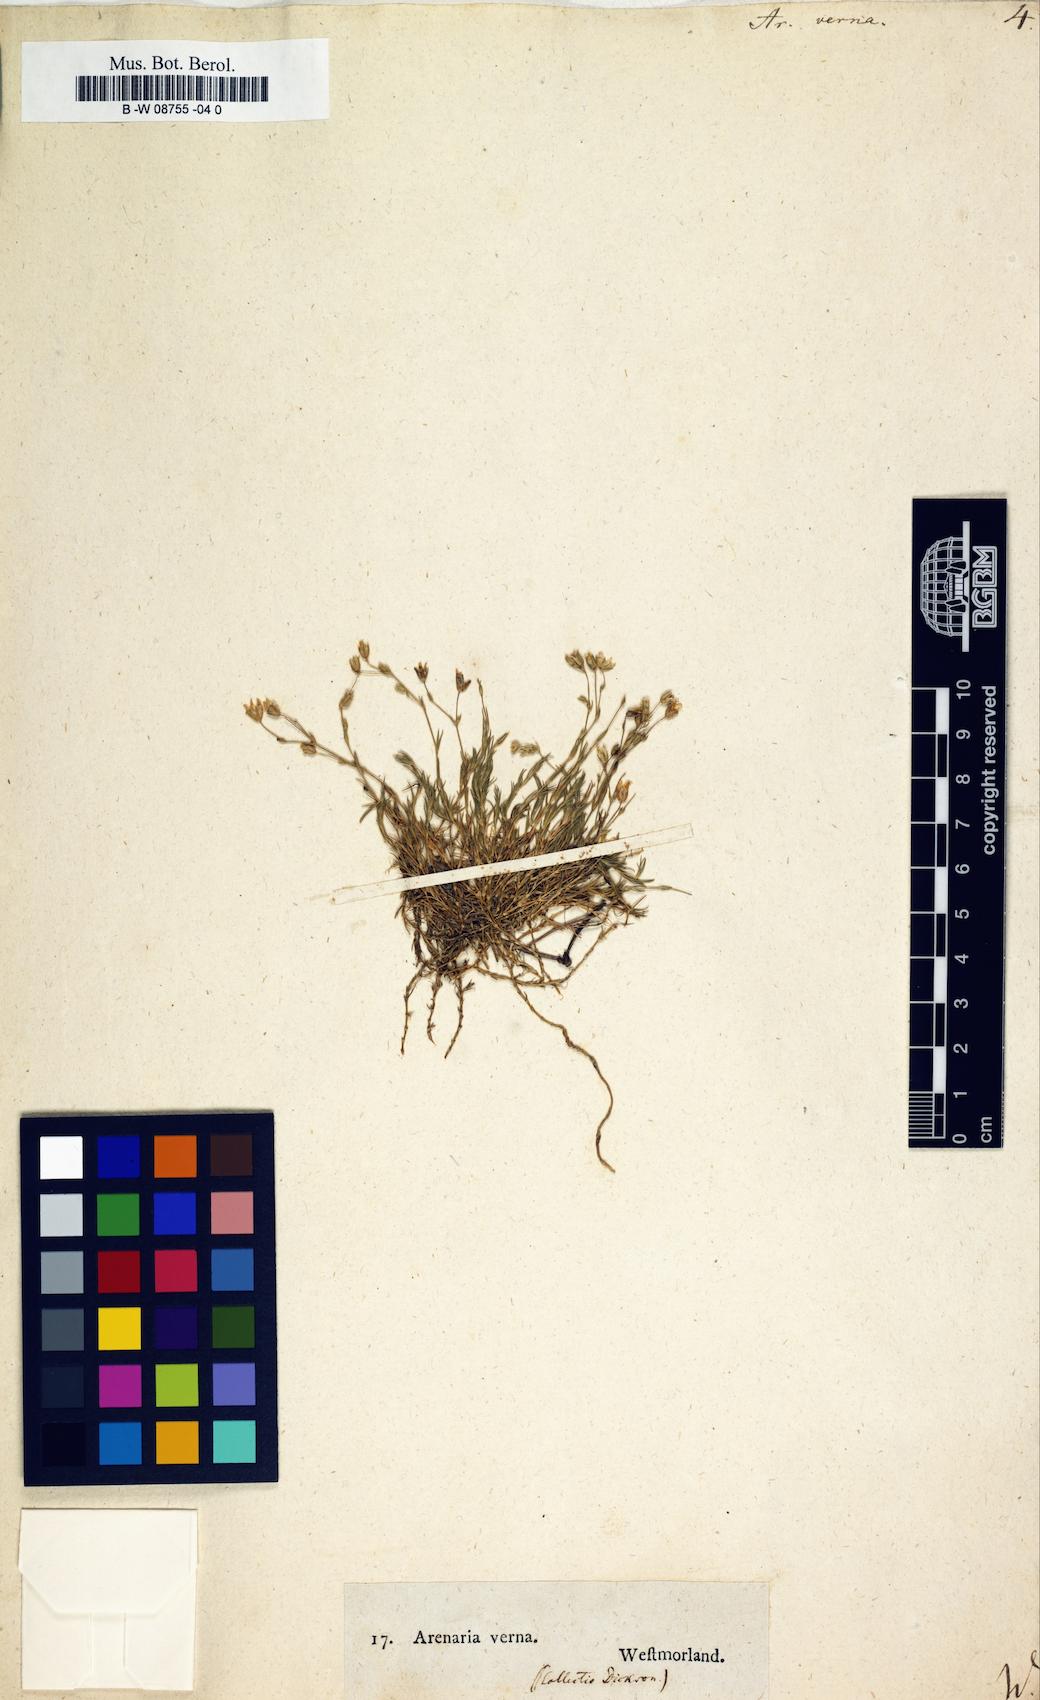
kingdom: Plantae
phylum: Tracheophyta
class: Magnoliopsida
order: Caryophyllales
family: Caryophyllaceae
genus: Sabulina
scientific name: Sabulina verna
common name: Spring sandwort
